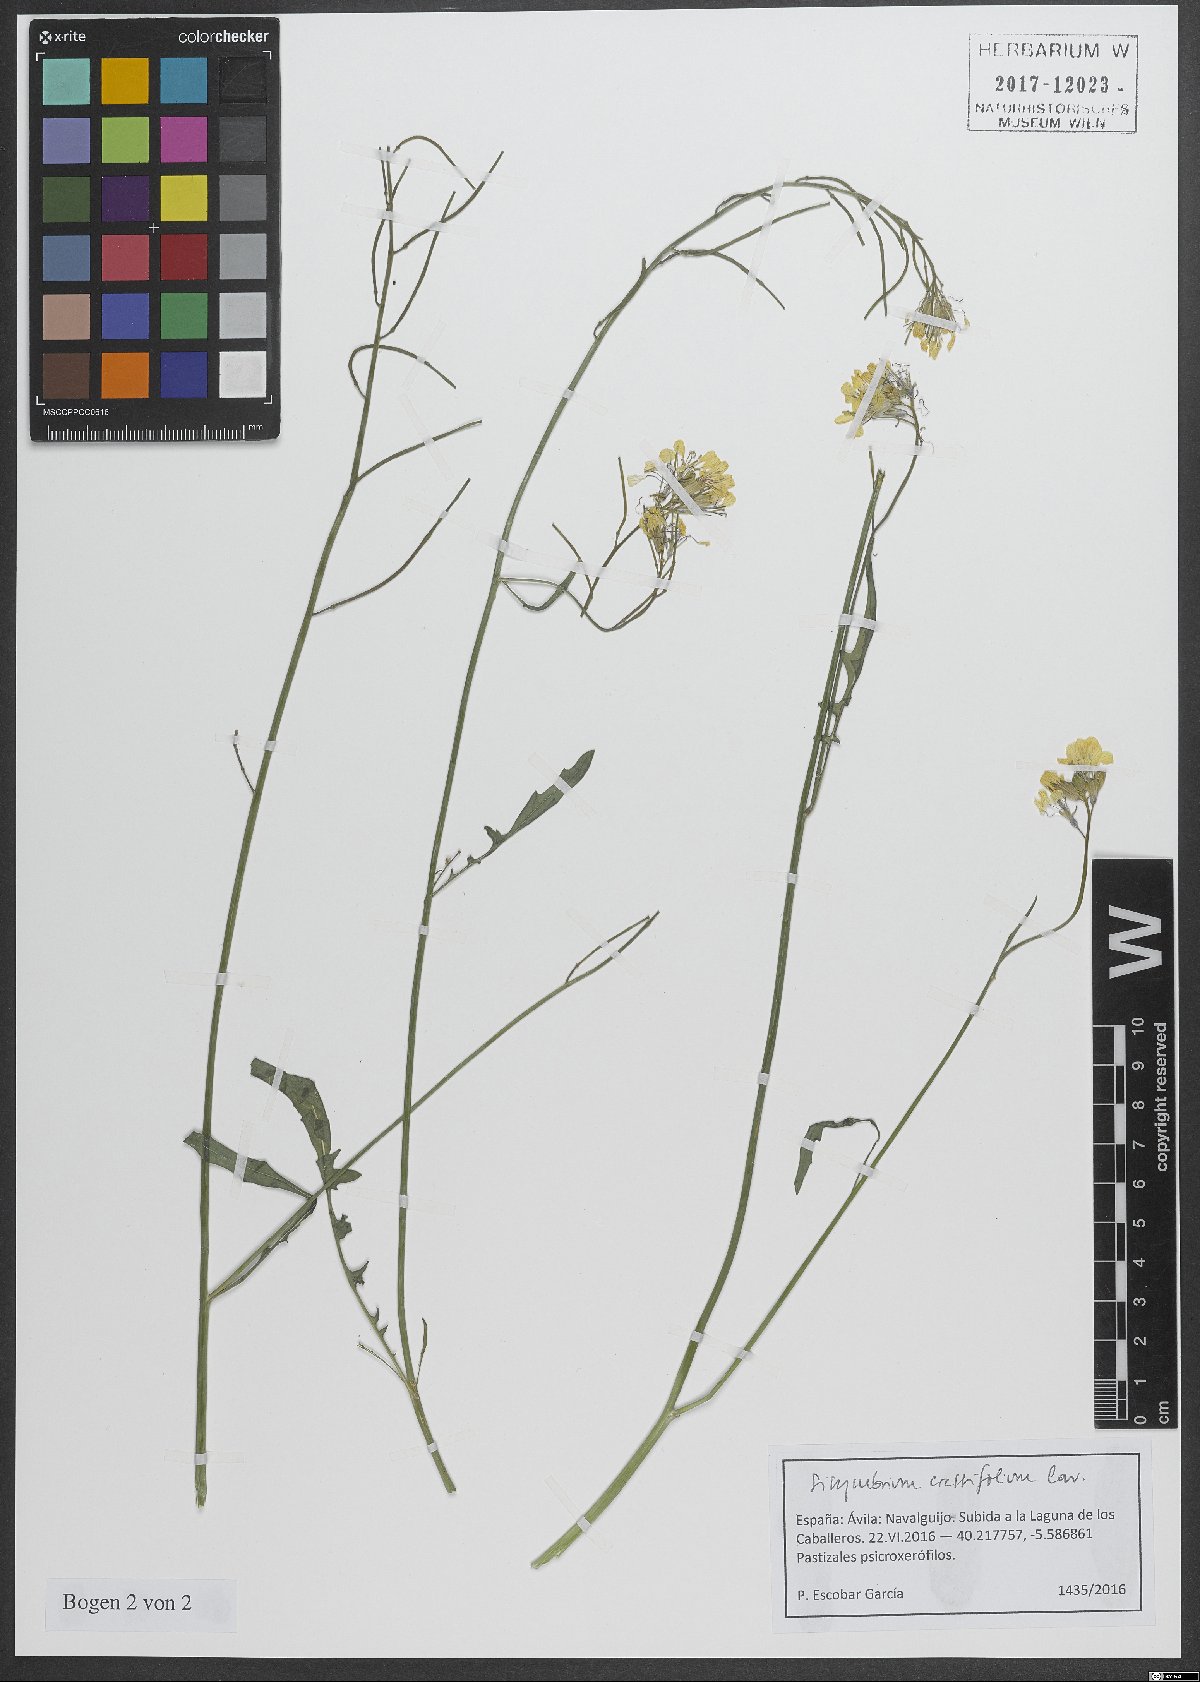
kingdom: Plantae
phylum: Tracheophyta
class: Magnoliopsida
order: Brassicales
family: Brassicaceae
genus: Sisymbrium
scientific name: Sisymbrium crassifolium
